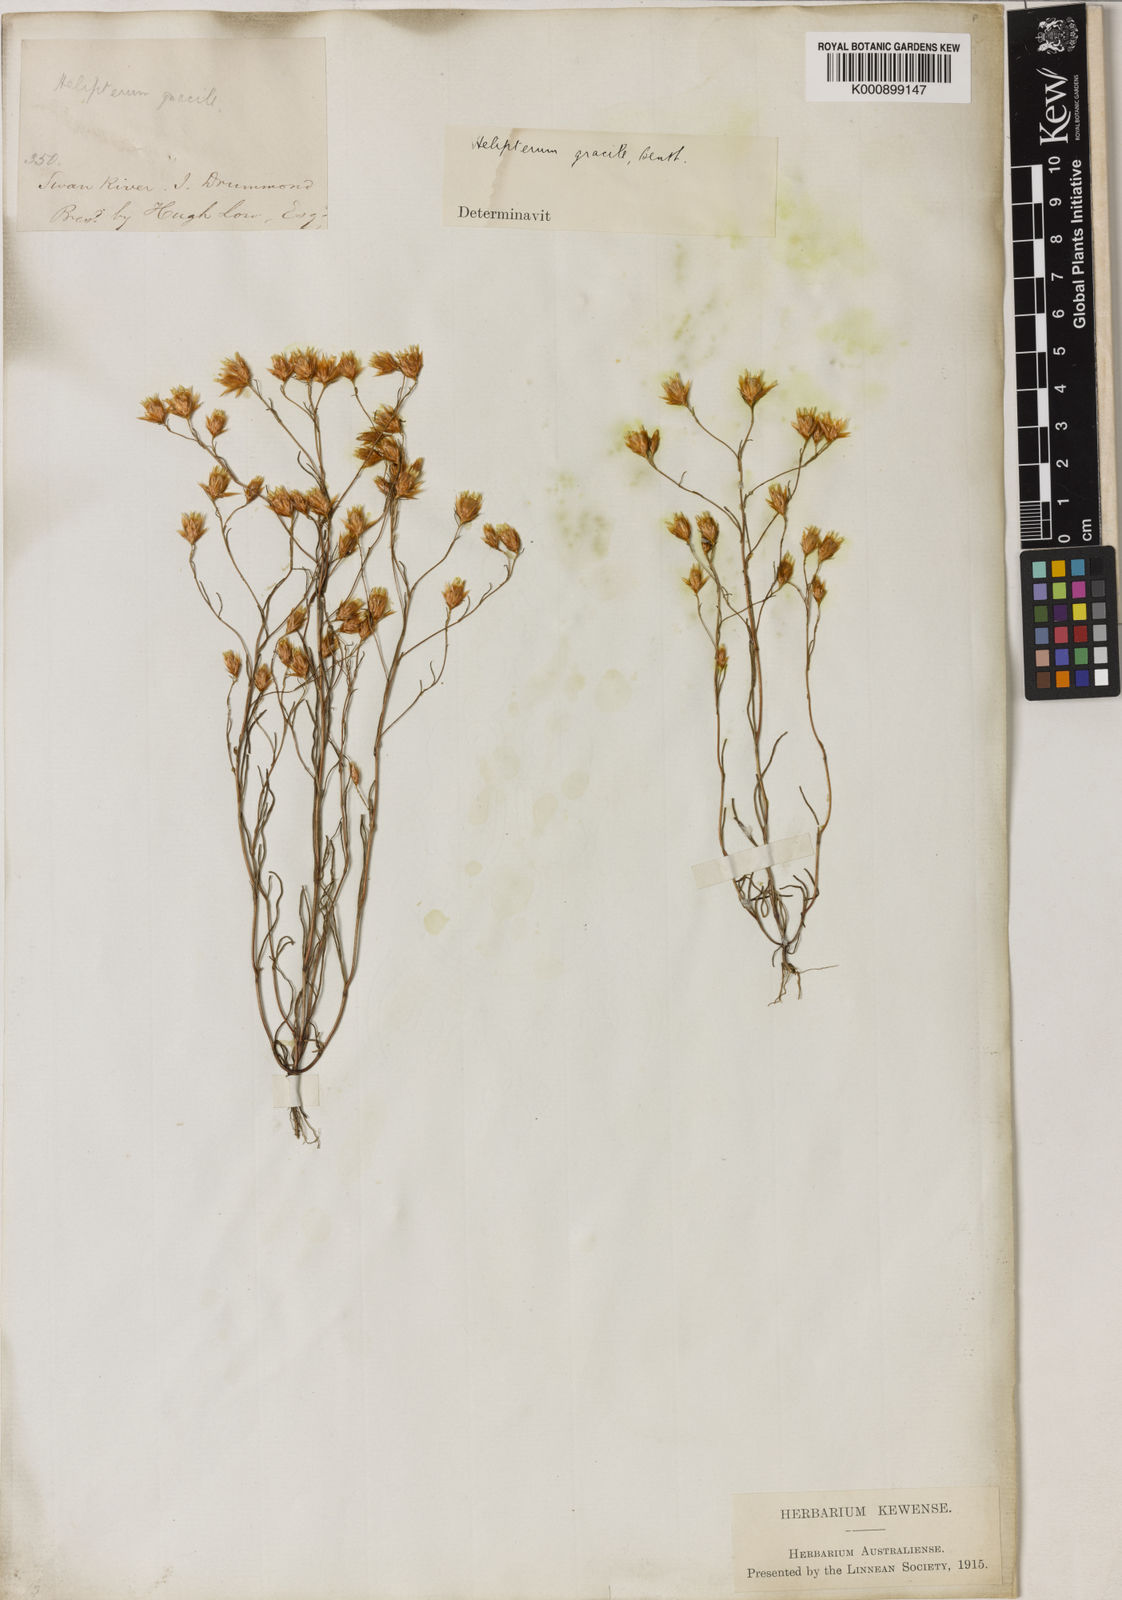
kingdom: Plantae
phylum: Tracheophyta
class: Magnoliopsida
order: Asterales
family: Asteraceae
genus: Erymophyllum
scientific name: Erymophyllum tenellum
